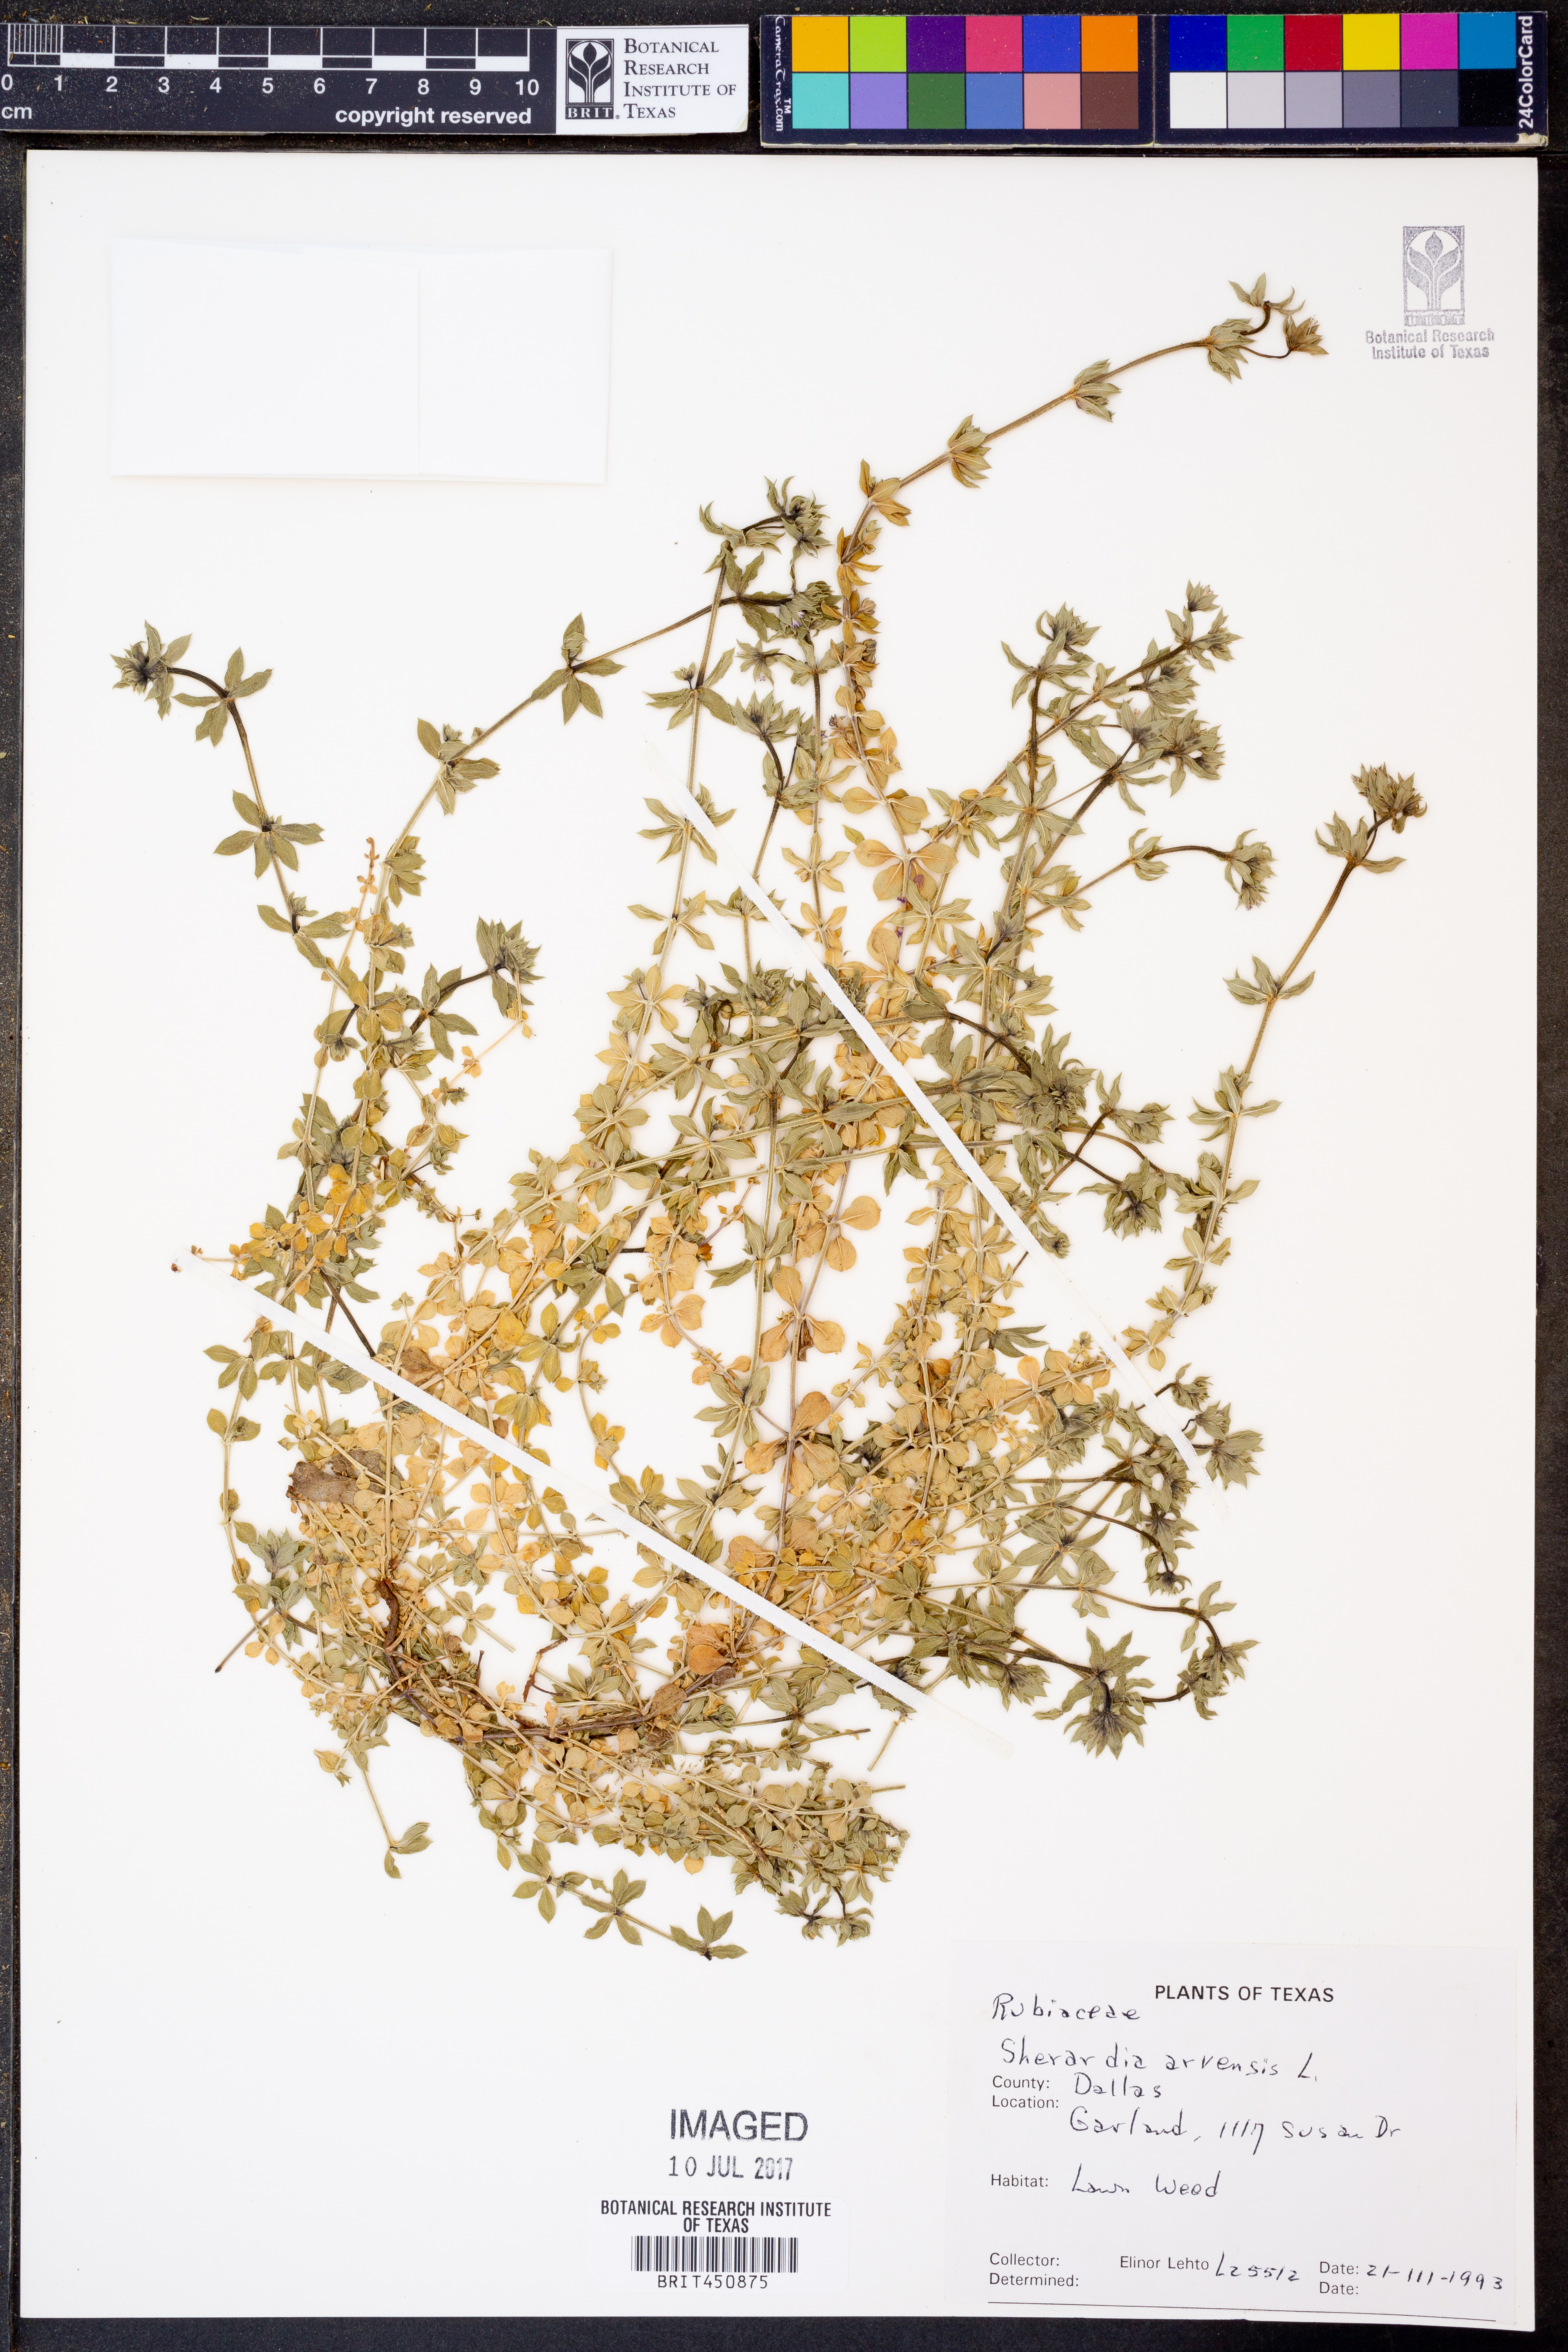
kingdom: Plantae
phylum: Tracheophyta
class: Magnoliopsida
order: Gentianales
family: Rubiaceae
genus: Sherardia
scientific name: Sherardia arvensis
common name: Field madder
